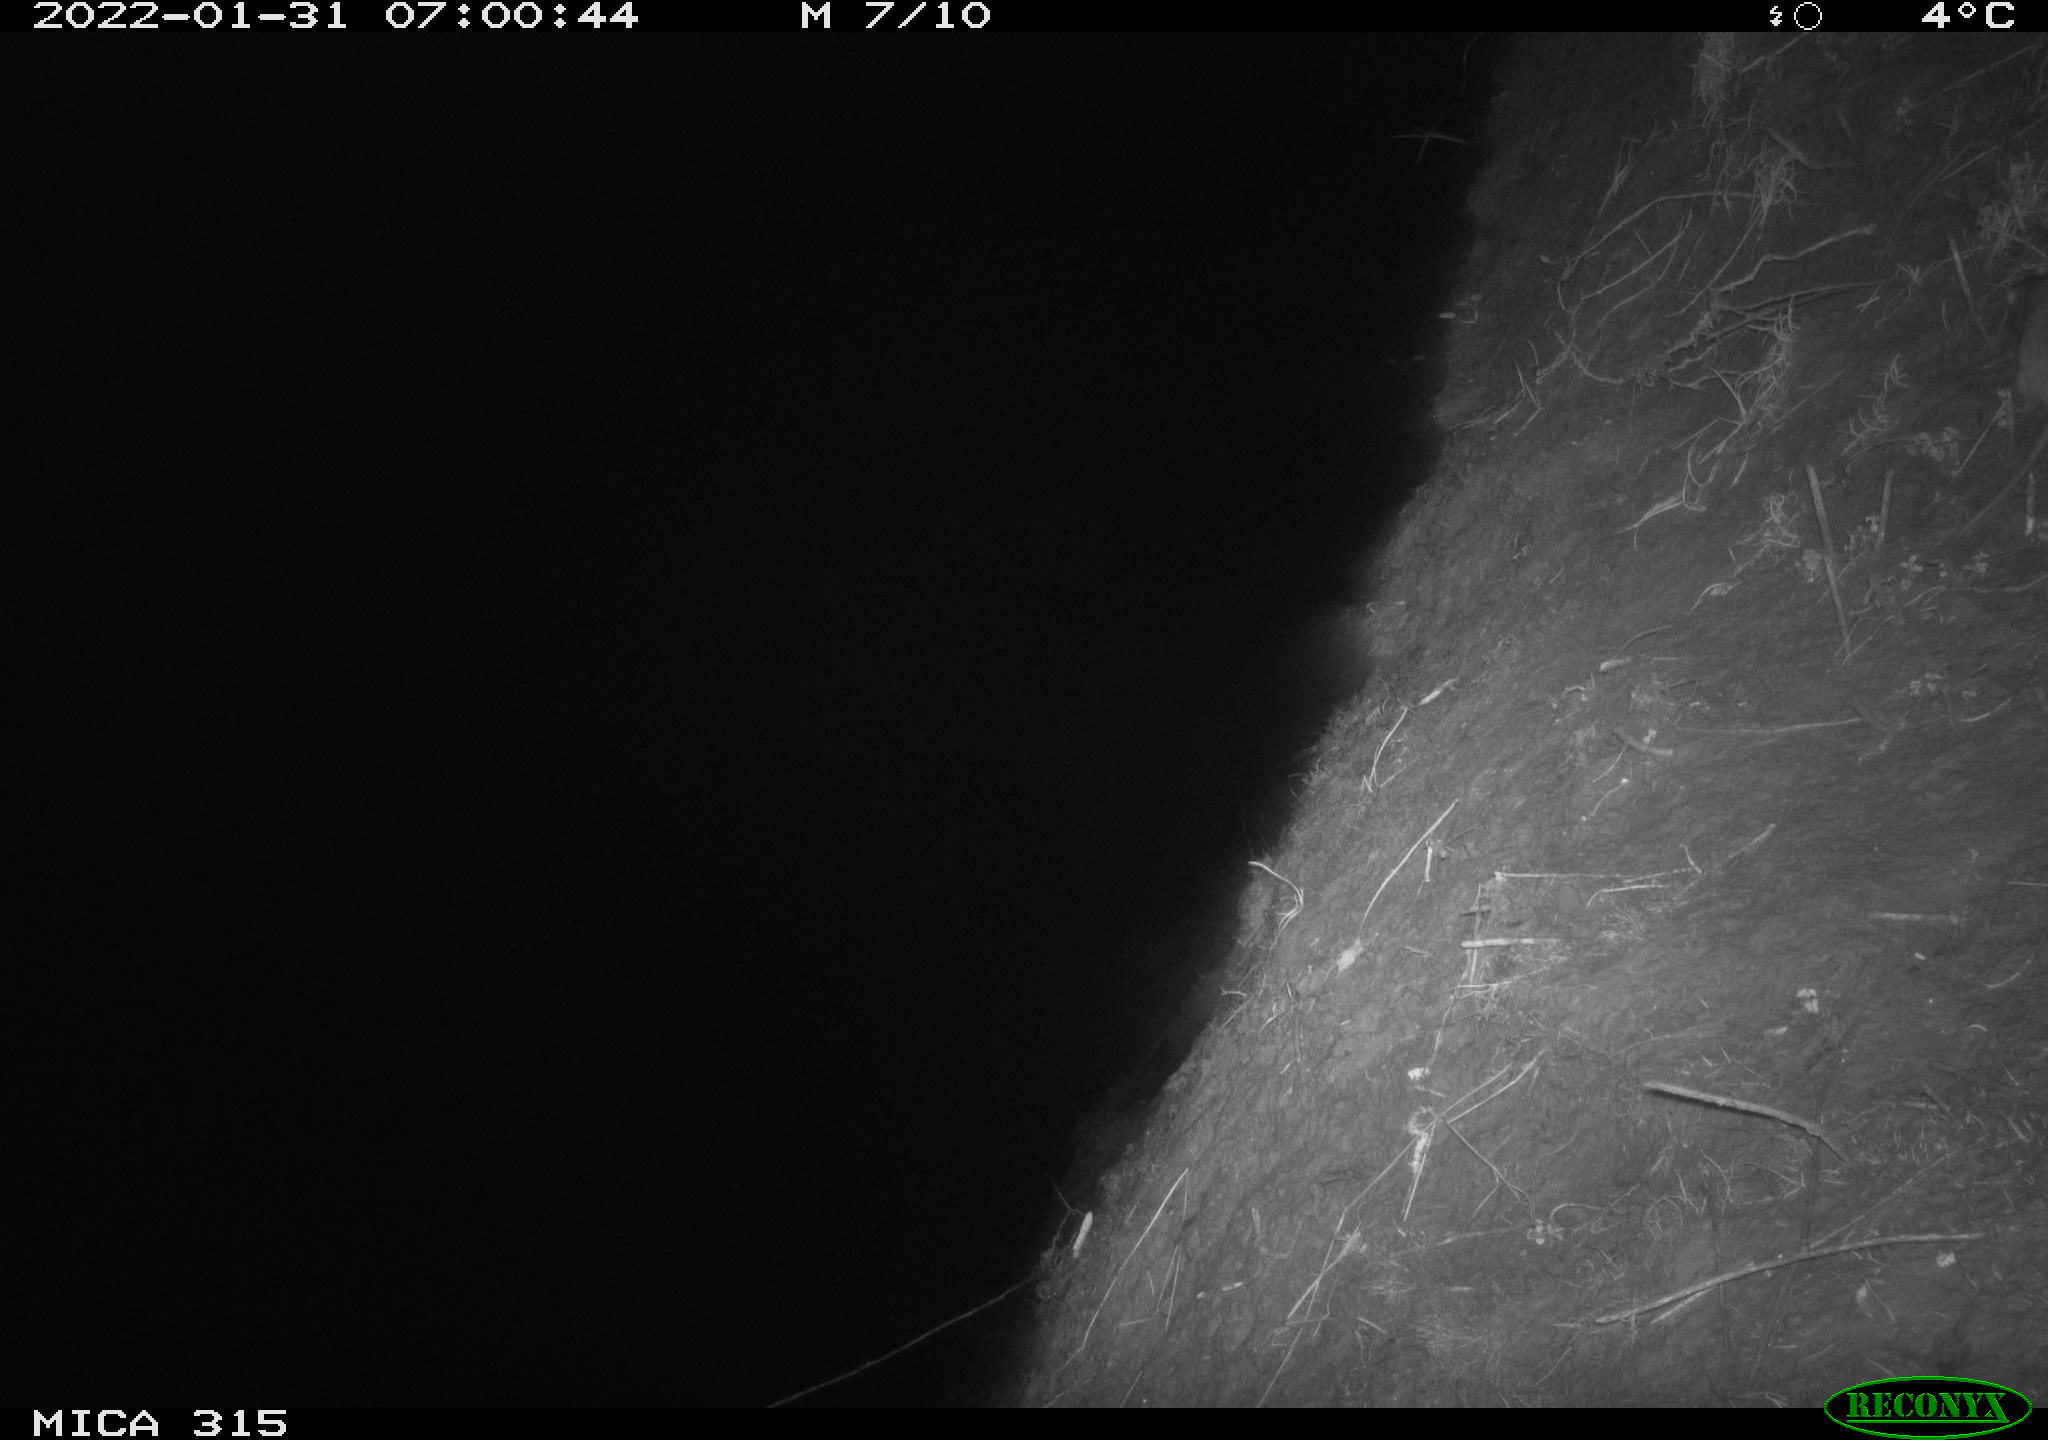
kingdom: Animalia
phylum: Chordata
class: Mammalia
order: Rodentia
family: Muridae
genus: Rattus
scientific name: Rattus norvegicus
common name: Brown rat
